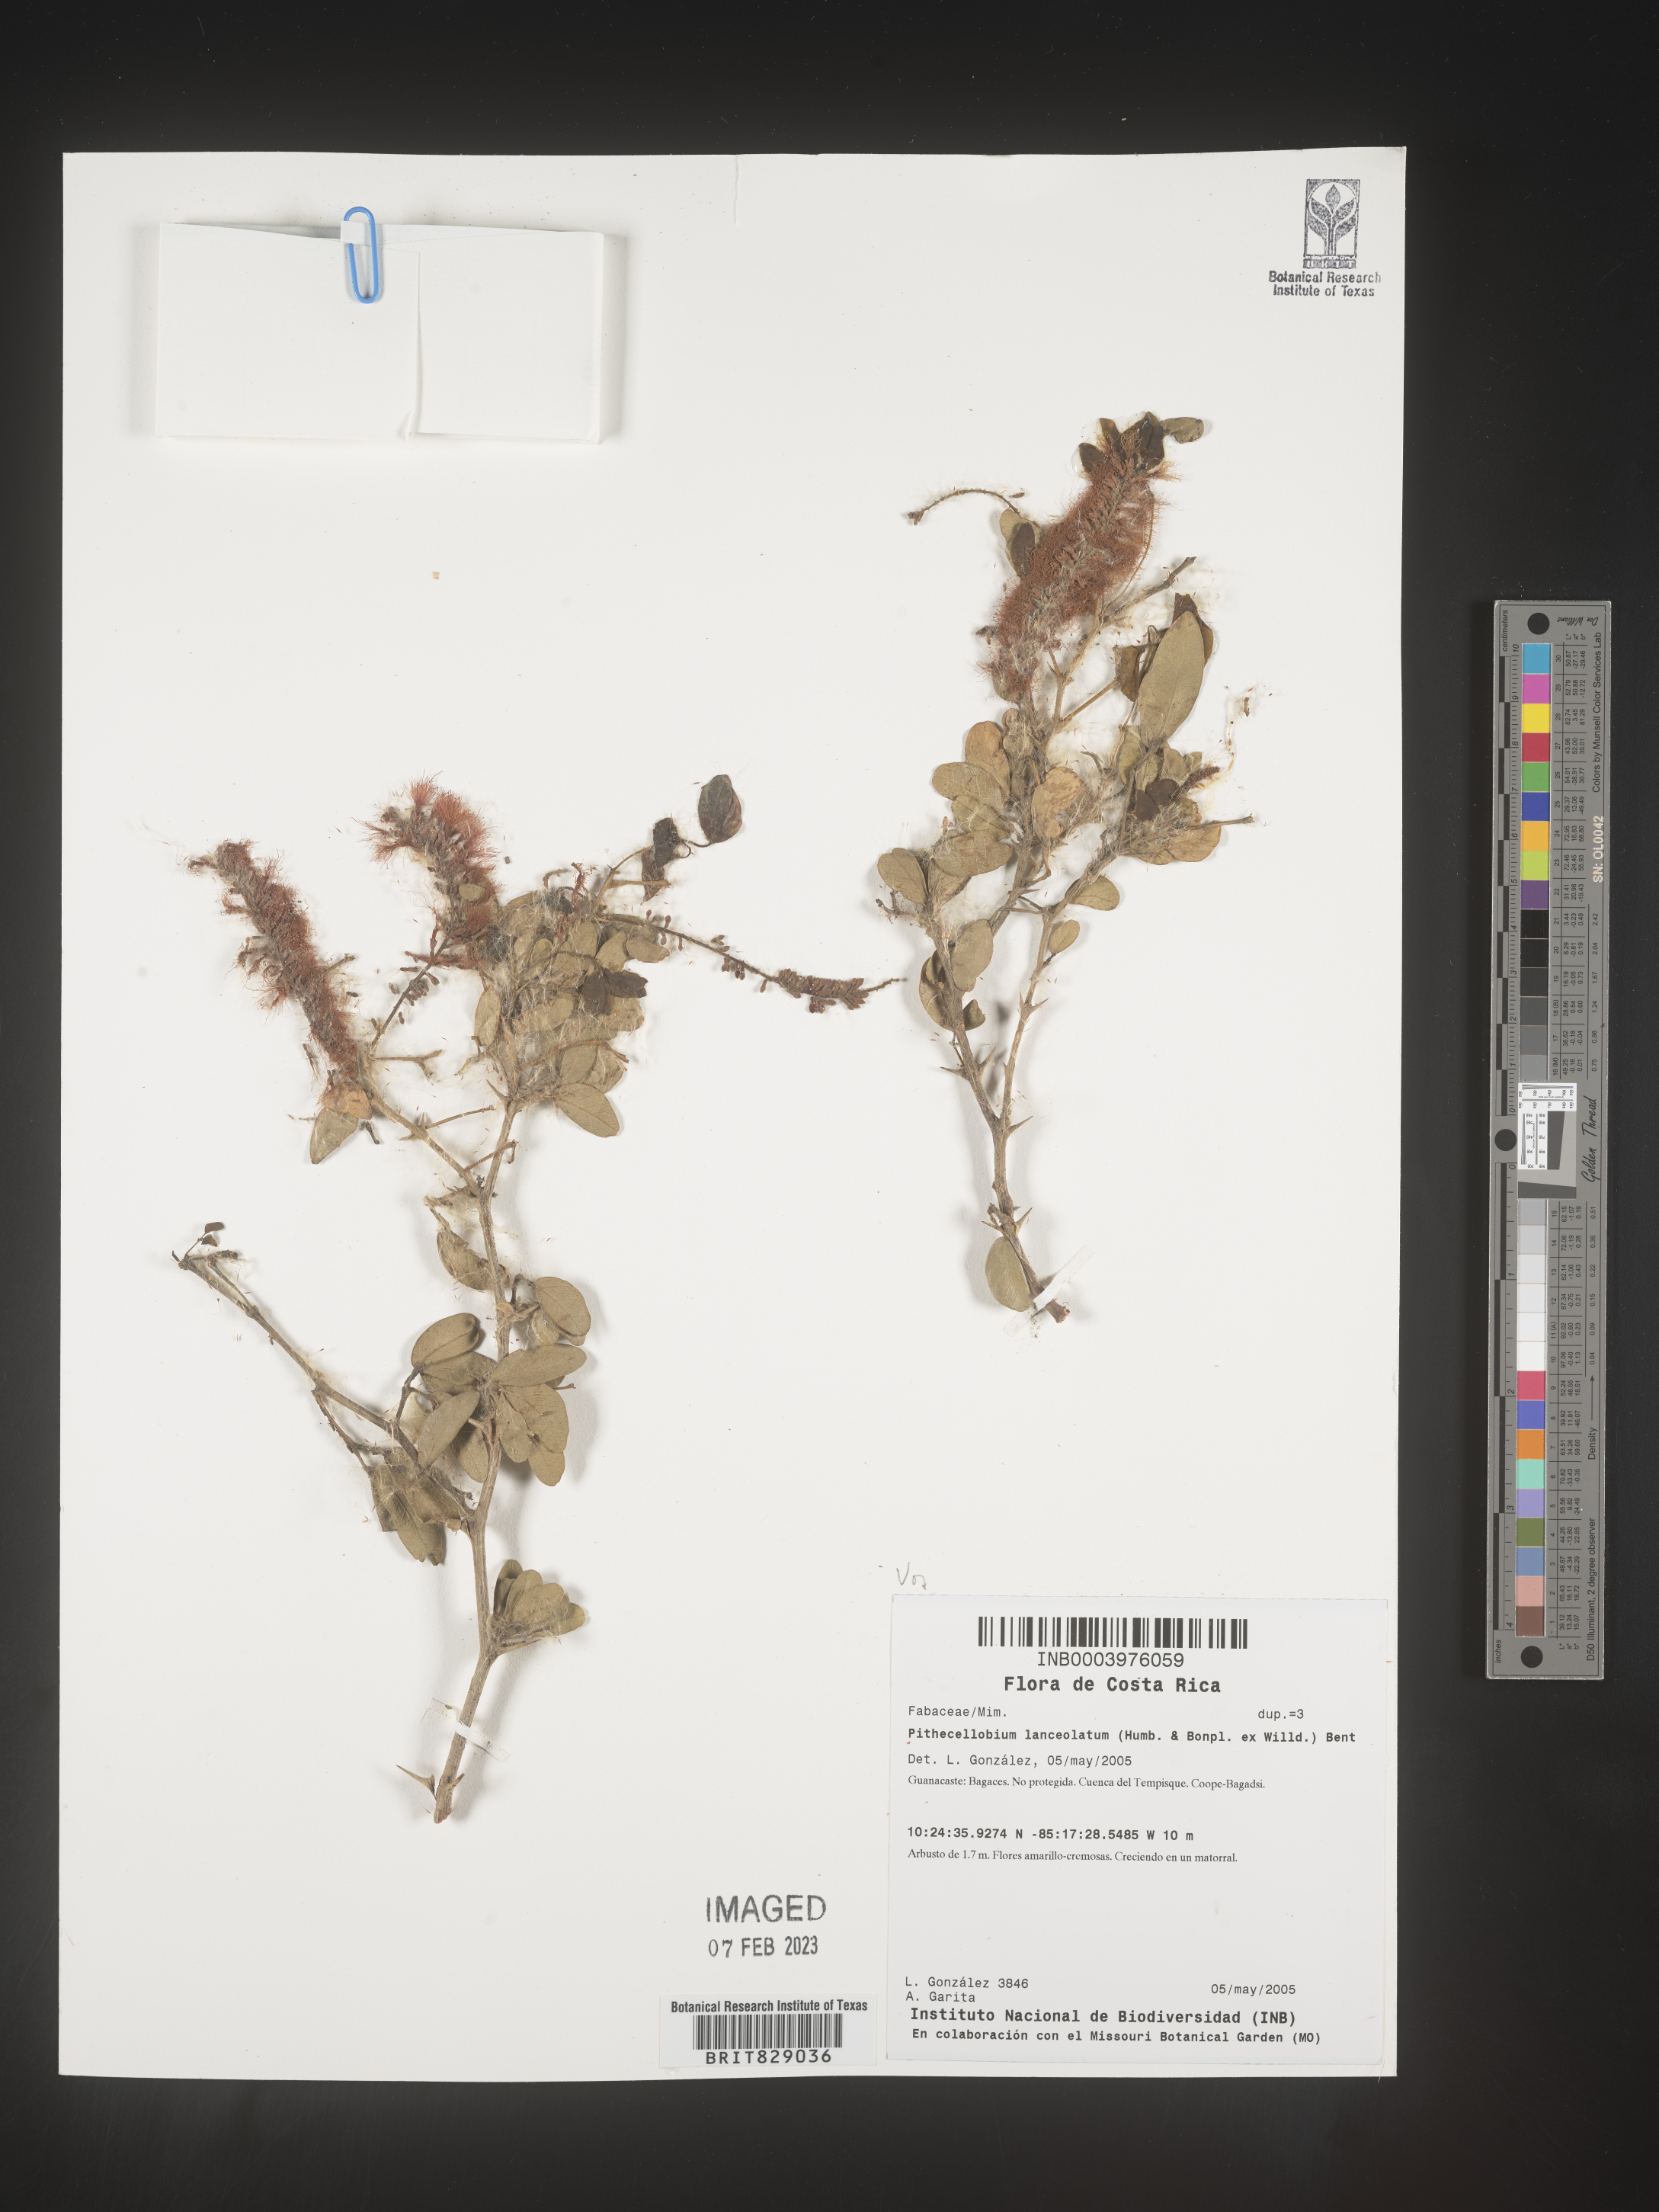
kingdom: Plantae
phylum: Tracheophyta
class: Magnoliopsida
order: Fabales
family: Fabaceae
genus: Pithecellobium
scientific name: Pithecellobium
